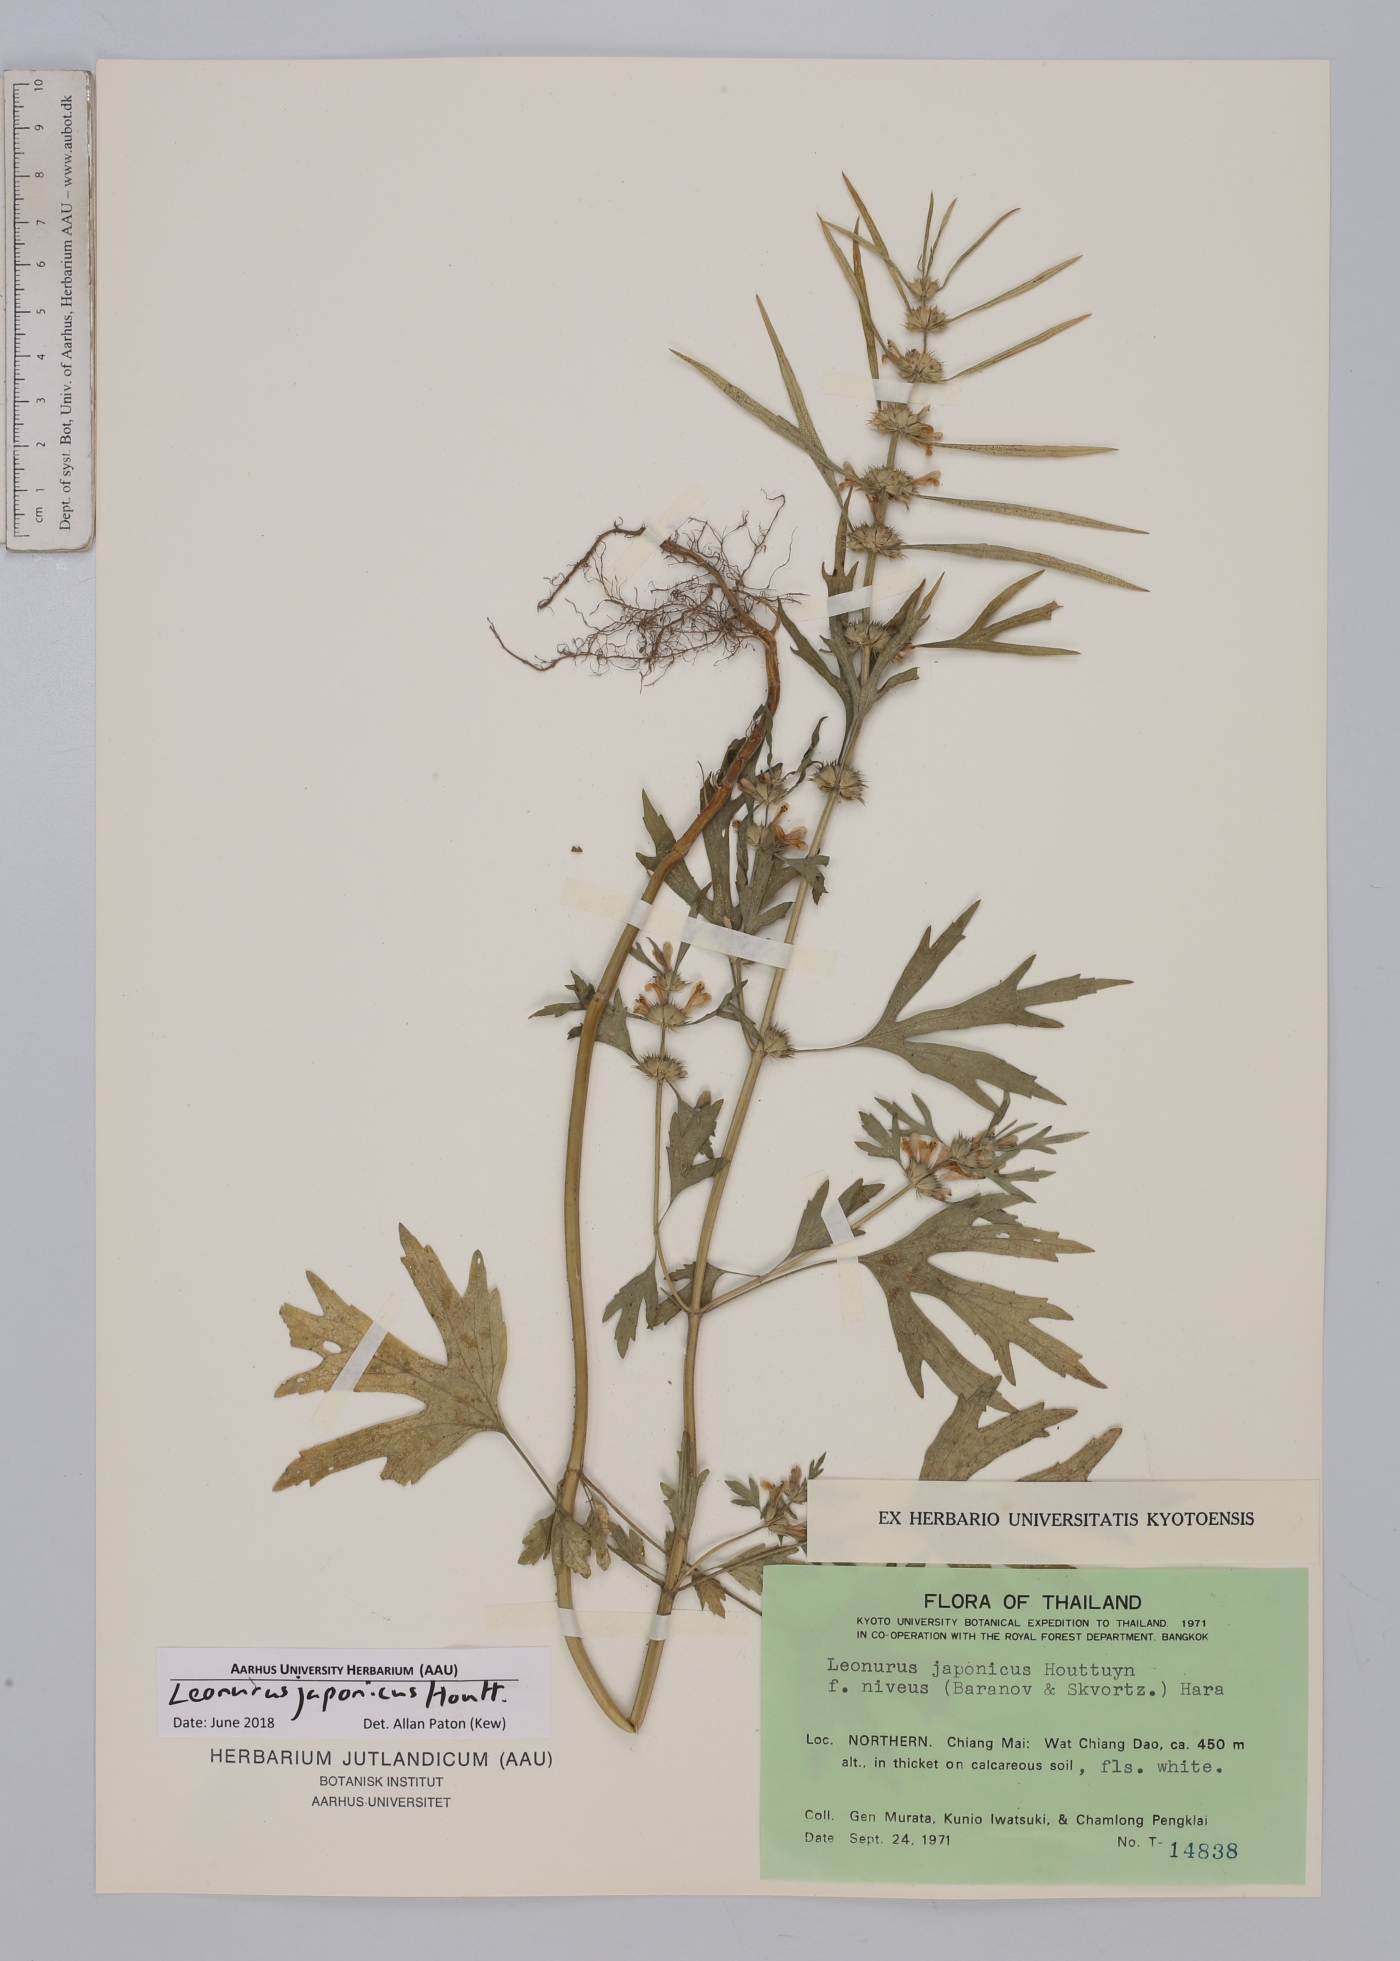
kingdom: Plantae
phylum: Tracheophyta
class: Magnoliopsida
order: Lamiales
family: Lamiaceae
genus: Leonurus
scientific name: Leonurus japonicus
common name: Honeyweed
